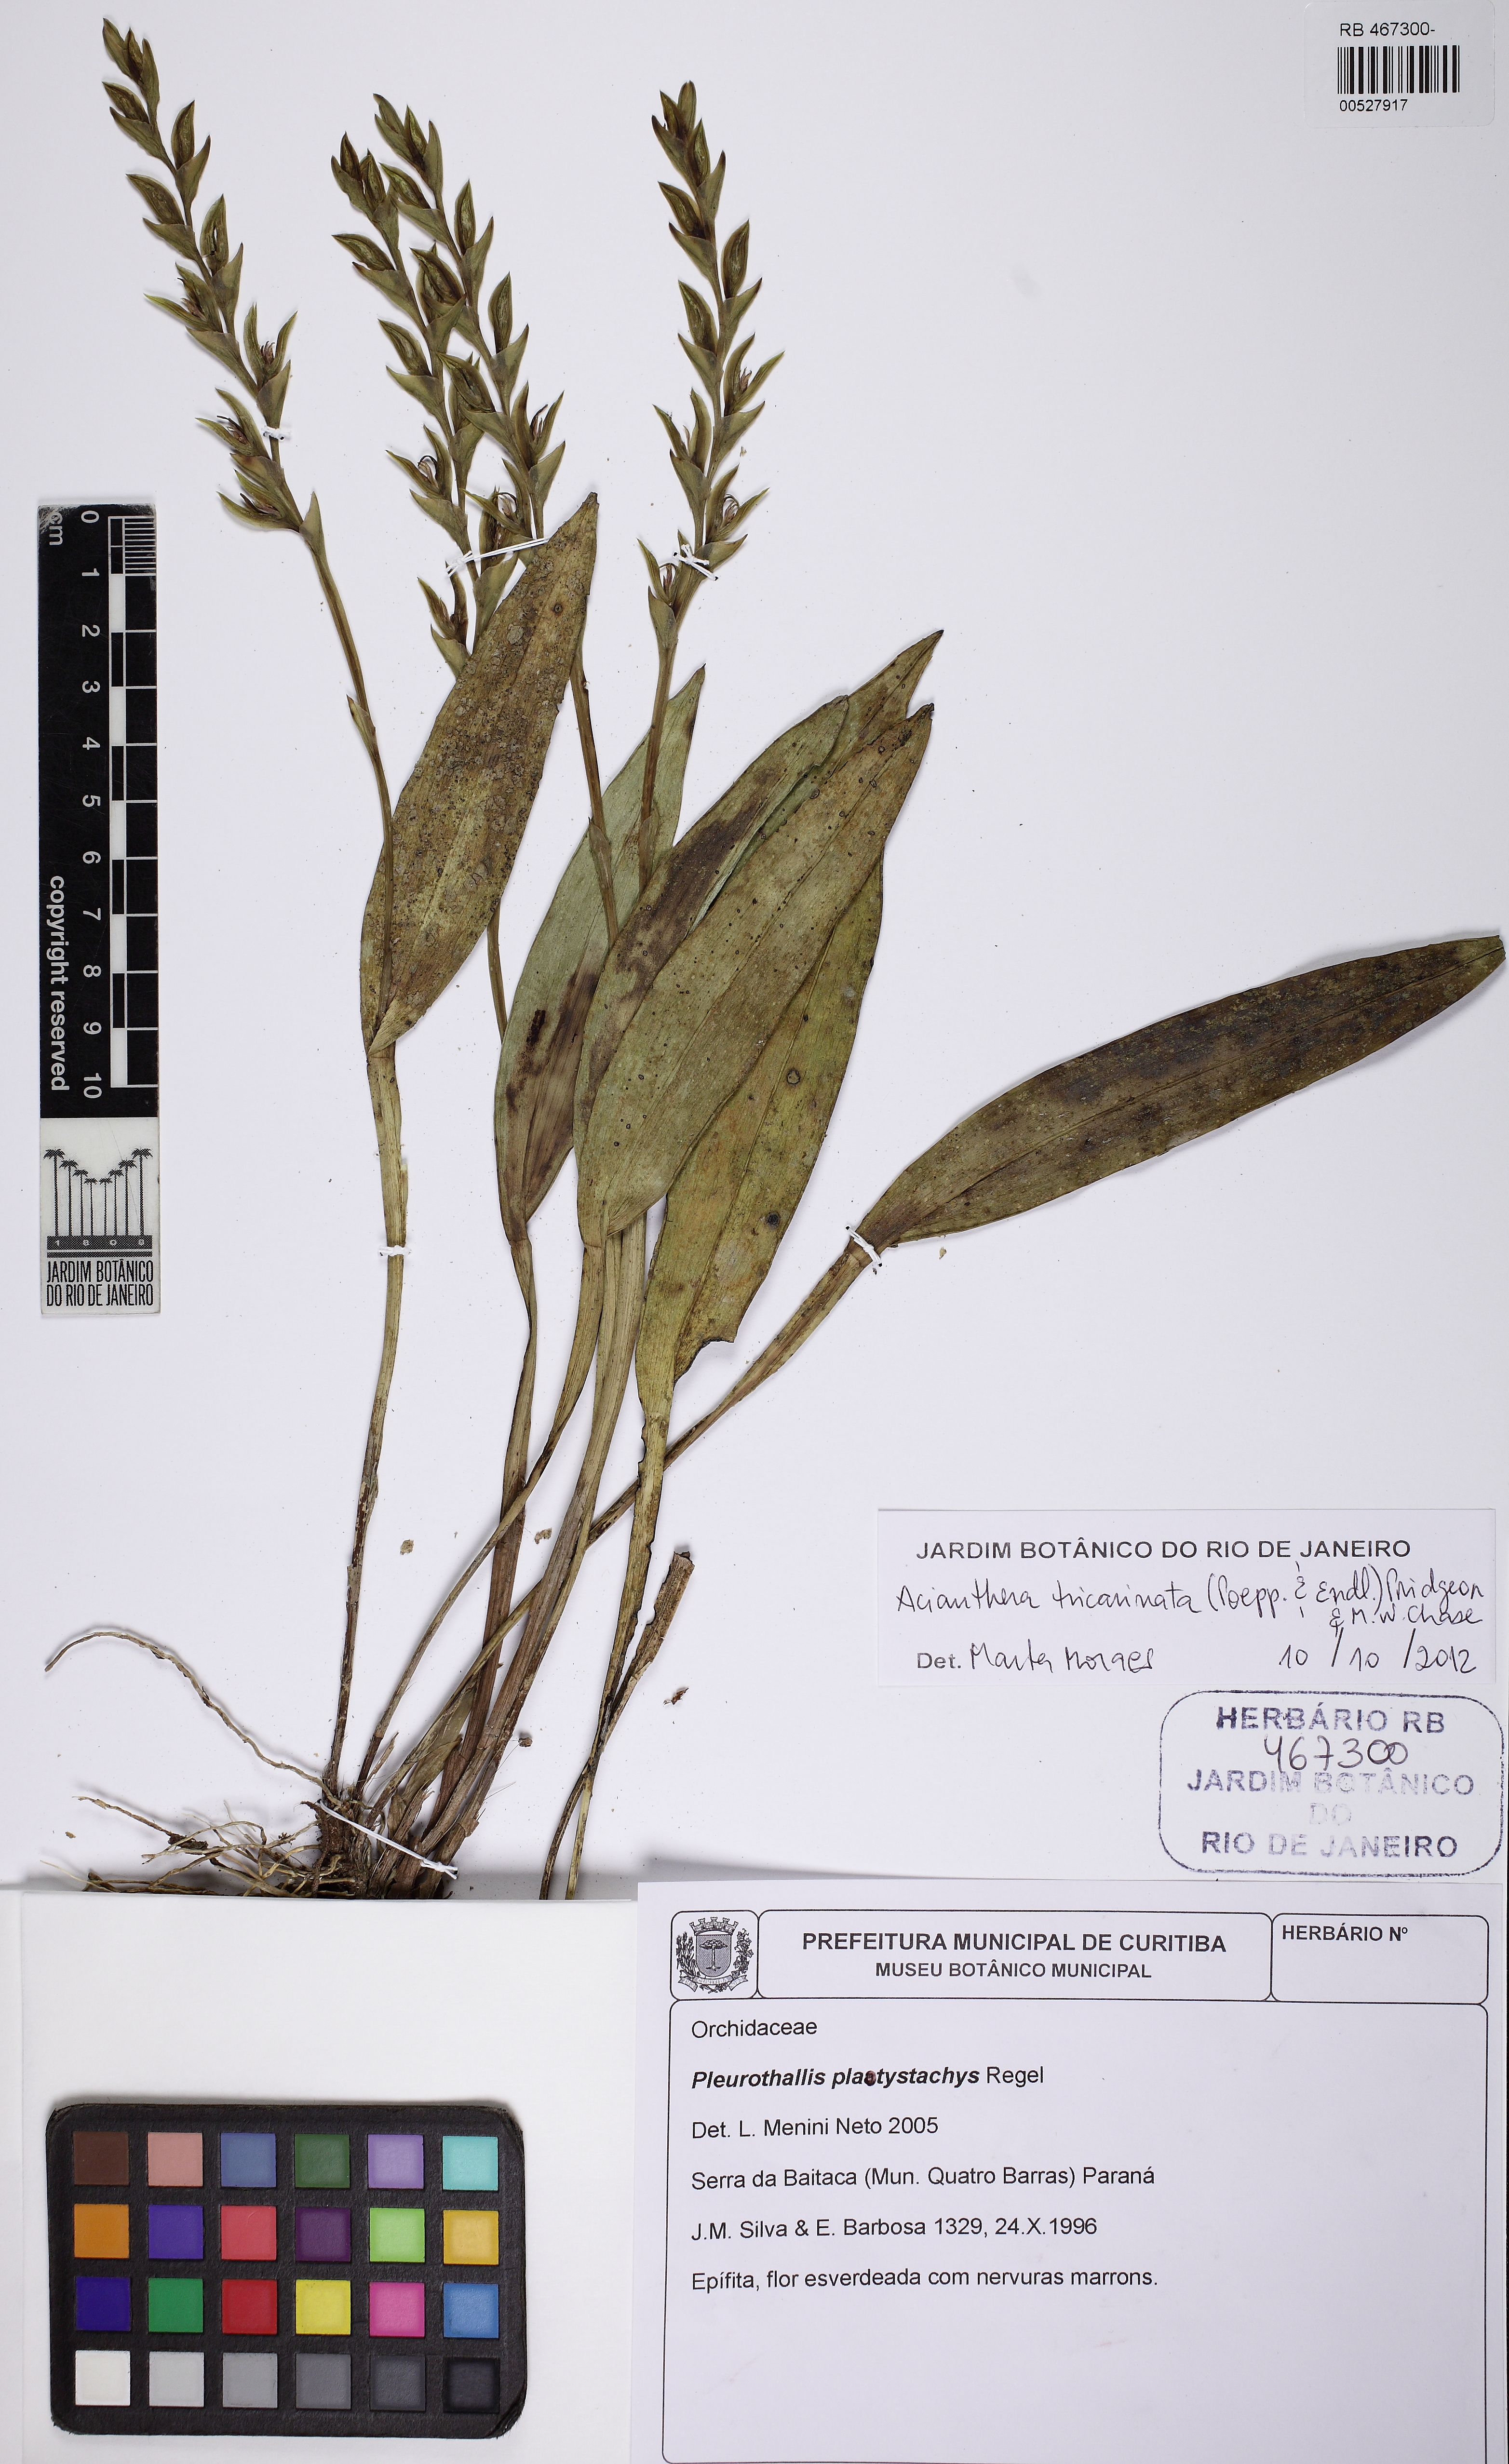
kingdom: Plantae
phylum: Tracheophyta
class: Liliopsida
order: Asparagales
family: Orchidaceae
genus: Acianthera
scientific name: Acianthera tricarinata
